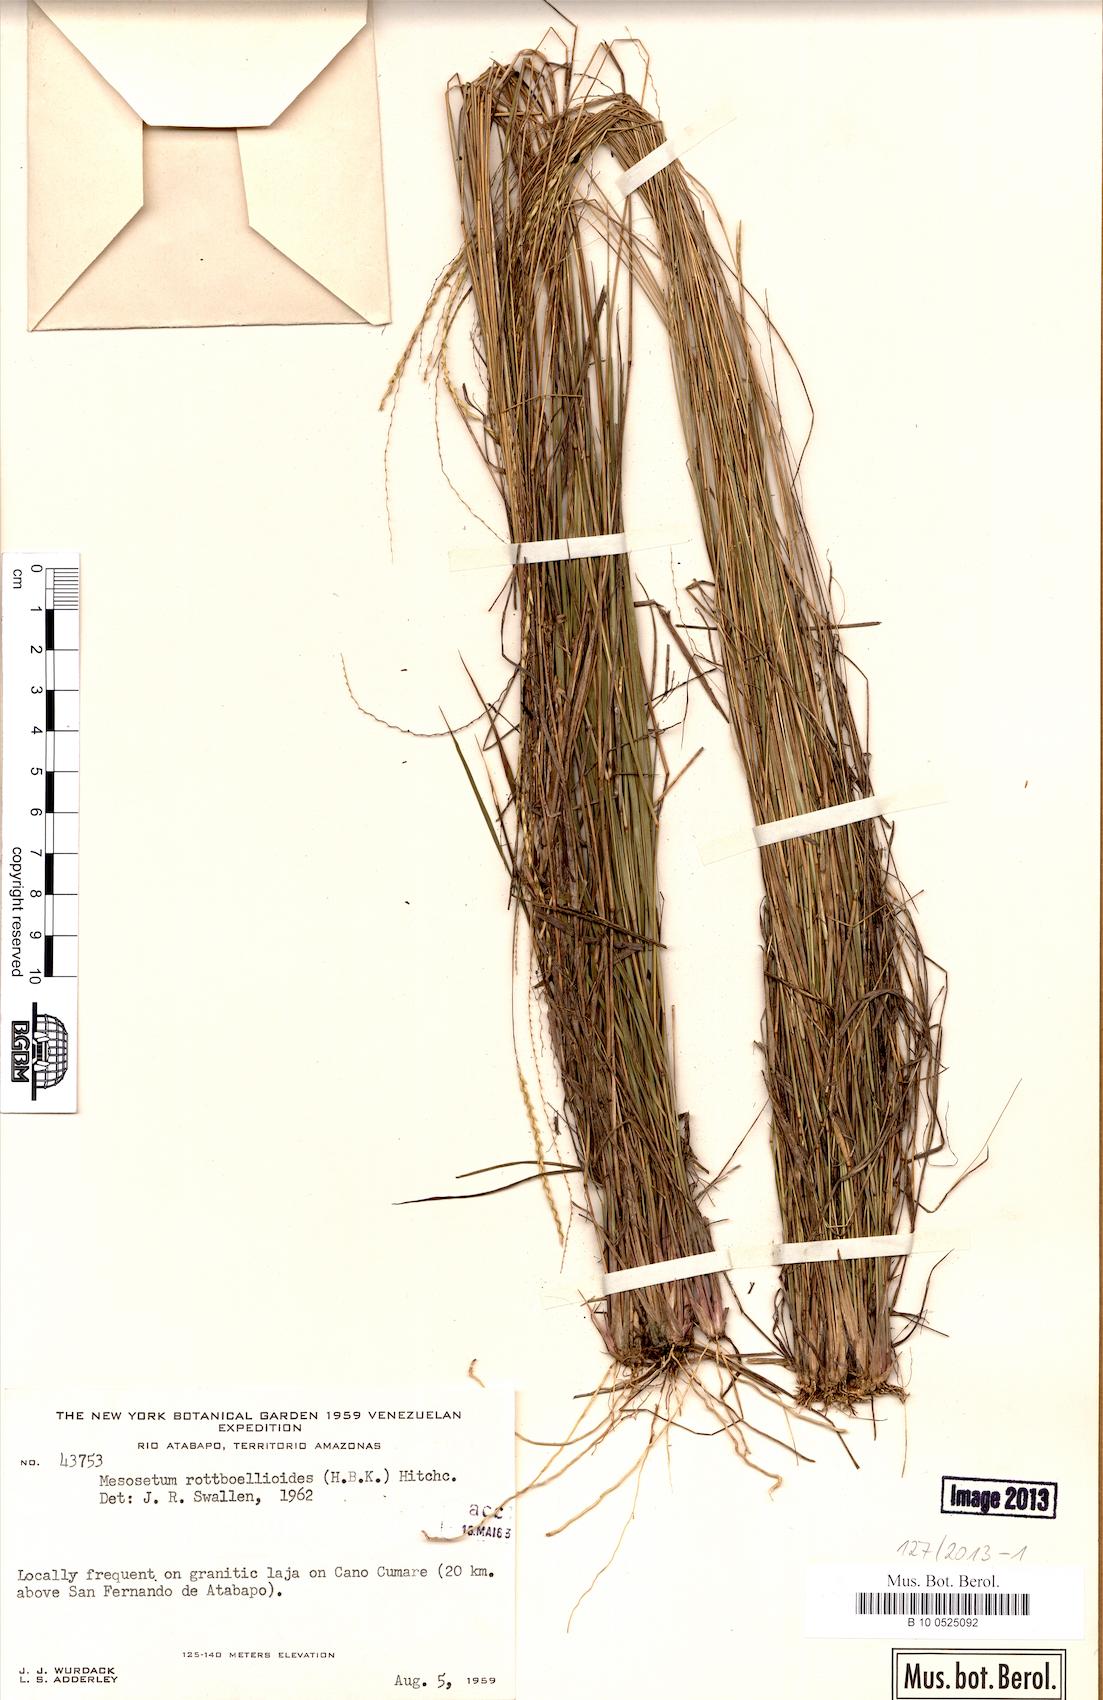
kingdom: Plantae
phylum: Tracheophyta
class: Liliopsida
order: Poales
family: Poaceae
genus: Mesosetum
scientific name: Mesosetum rottboellioides
